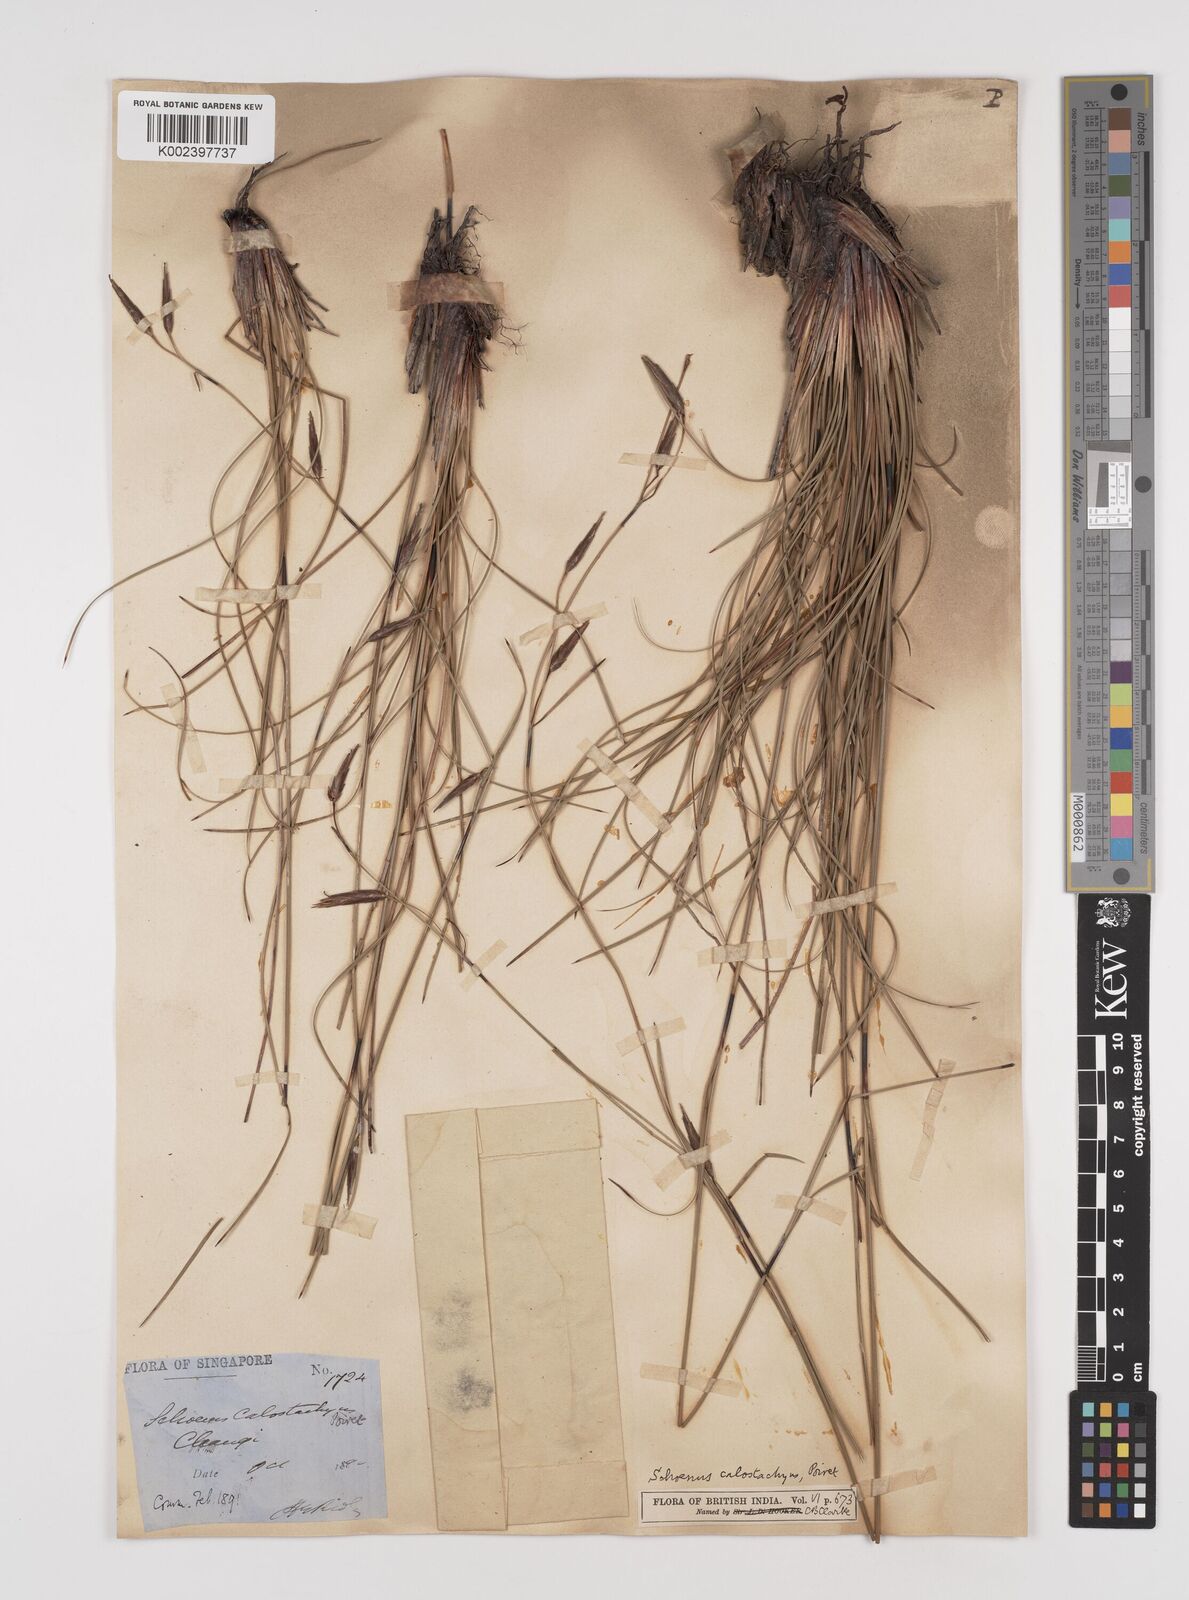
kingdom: Plantae
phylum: Tracheophyta
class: Liliopsida
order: Poales
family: Cyperaceae
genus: Schoenus
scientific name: Schoenus calostachyus
